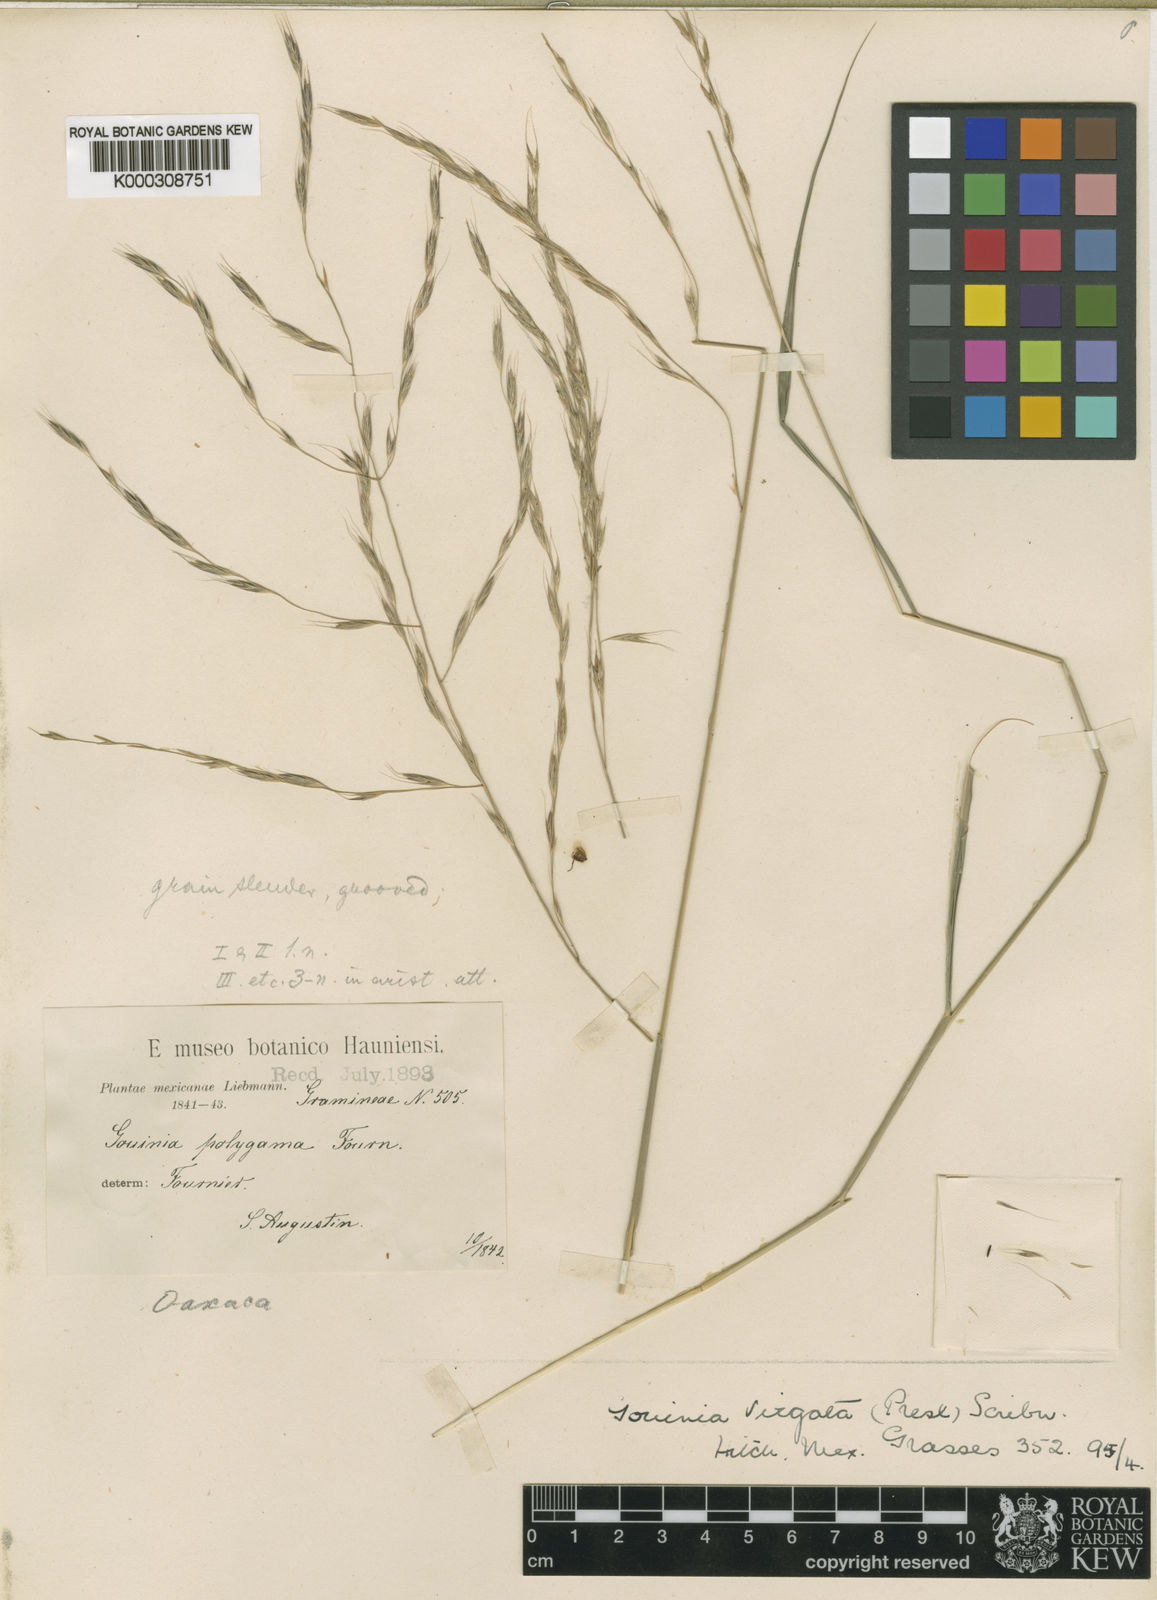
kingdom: Plantae
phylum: Tracheophyta
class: Liliopsida
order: Poales
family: Poaceae
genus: Gouinia
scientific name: Gouinia virgata
